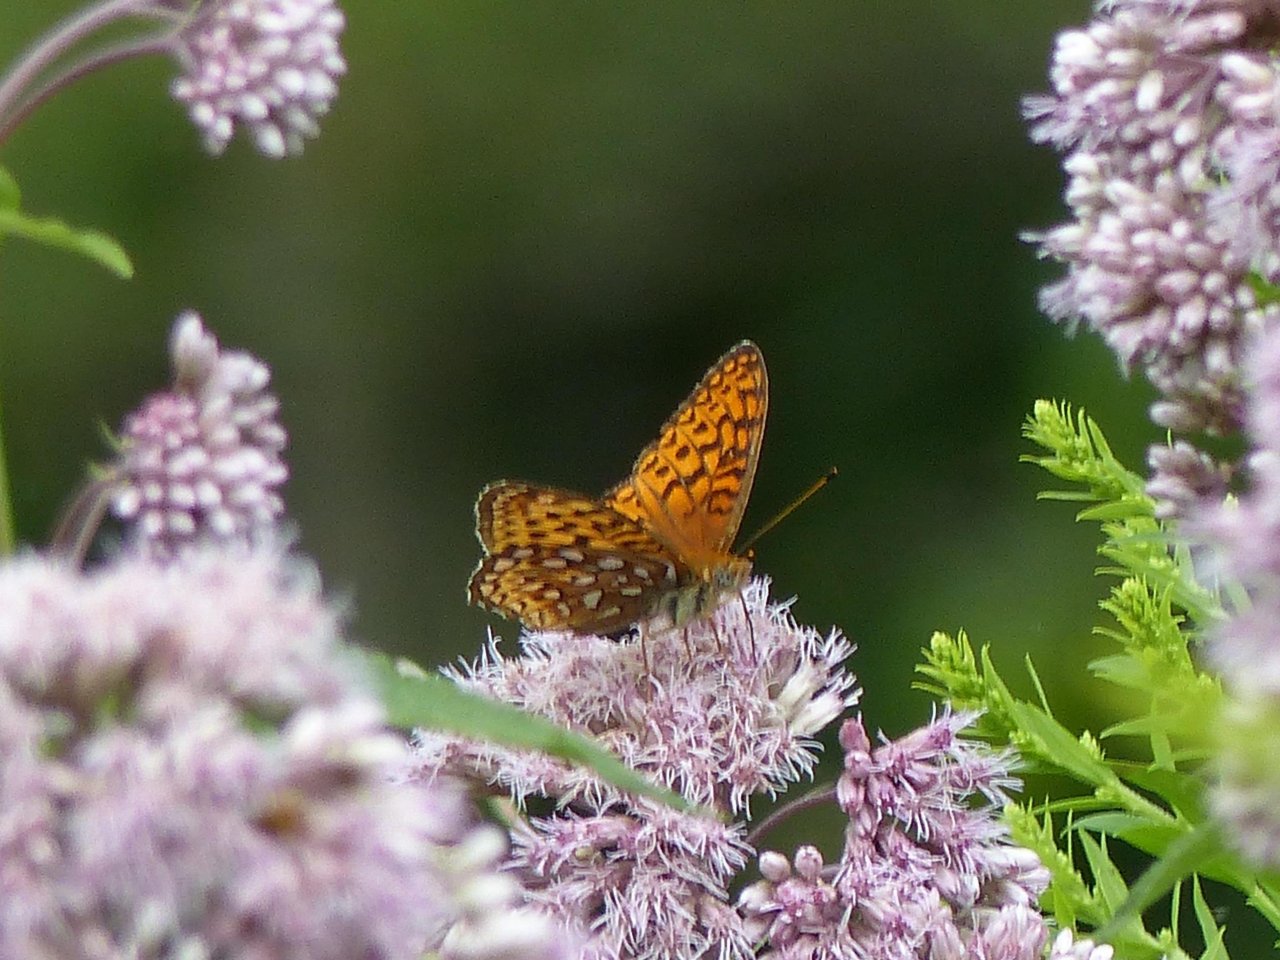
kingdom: Animalia
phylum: Arthropoda
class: Insecta
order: Lepidoptera
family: Nymphalidae
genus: Speyeria
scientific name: Speyeria atlantis
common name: Atlantis Fritillary
